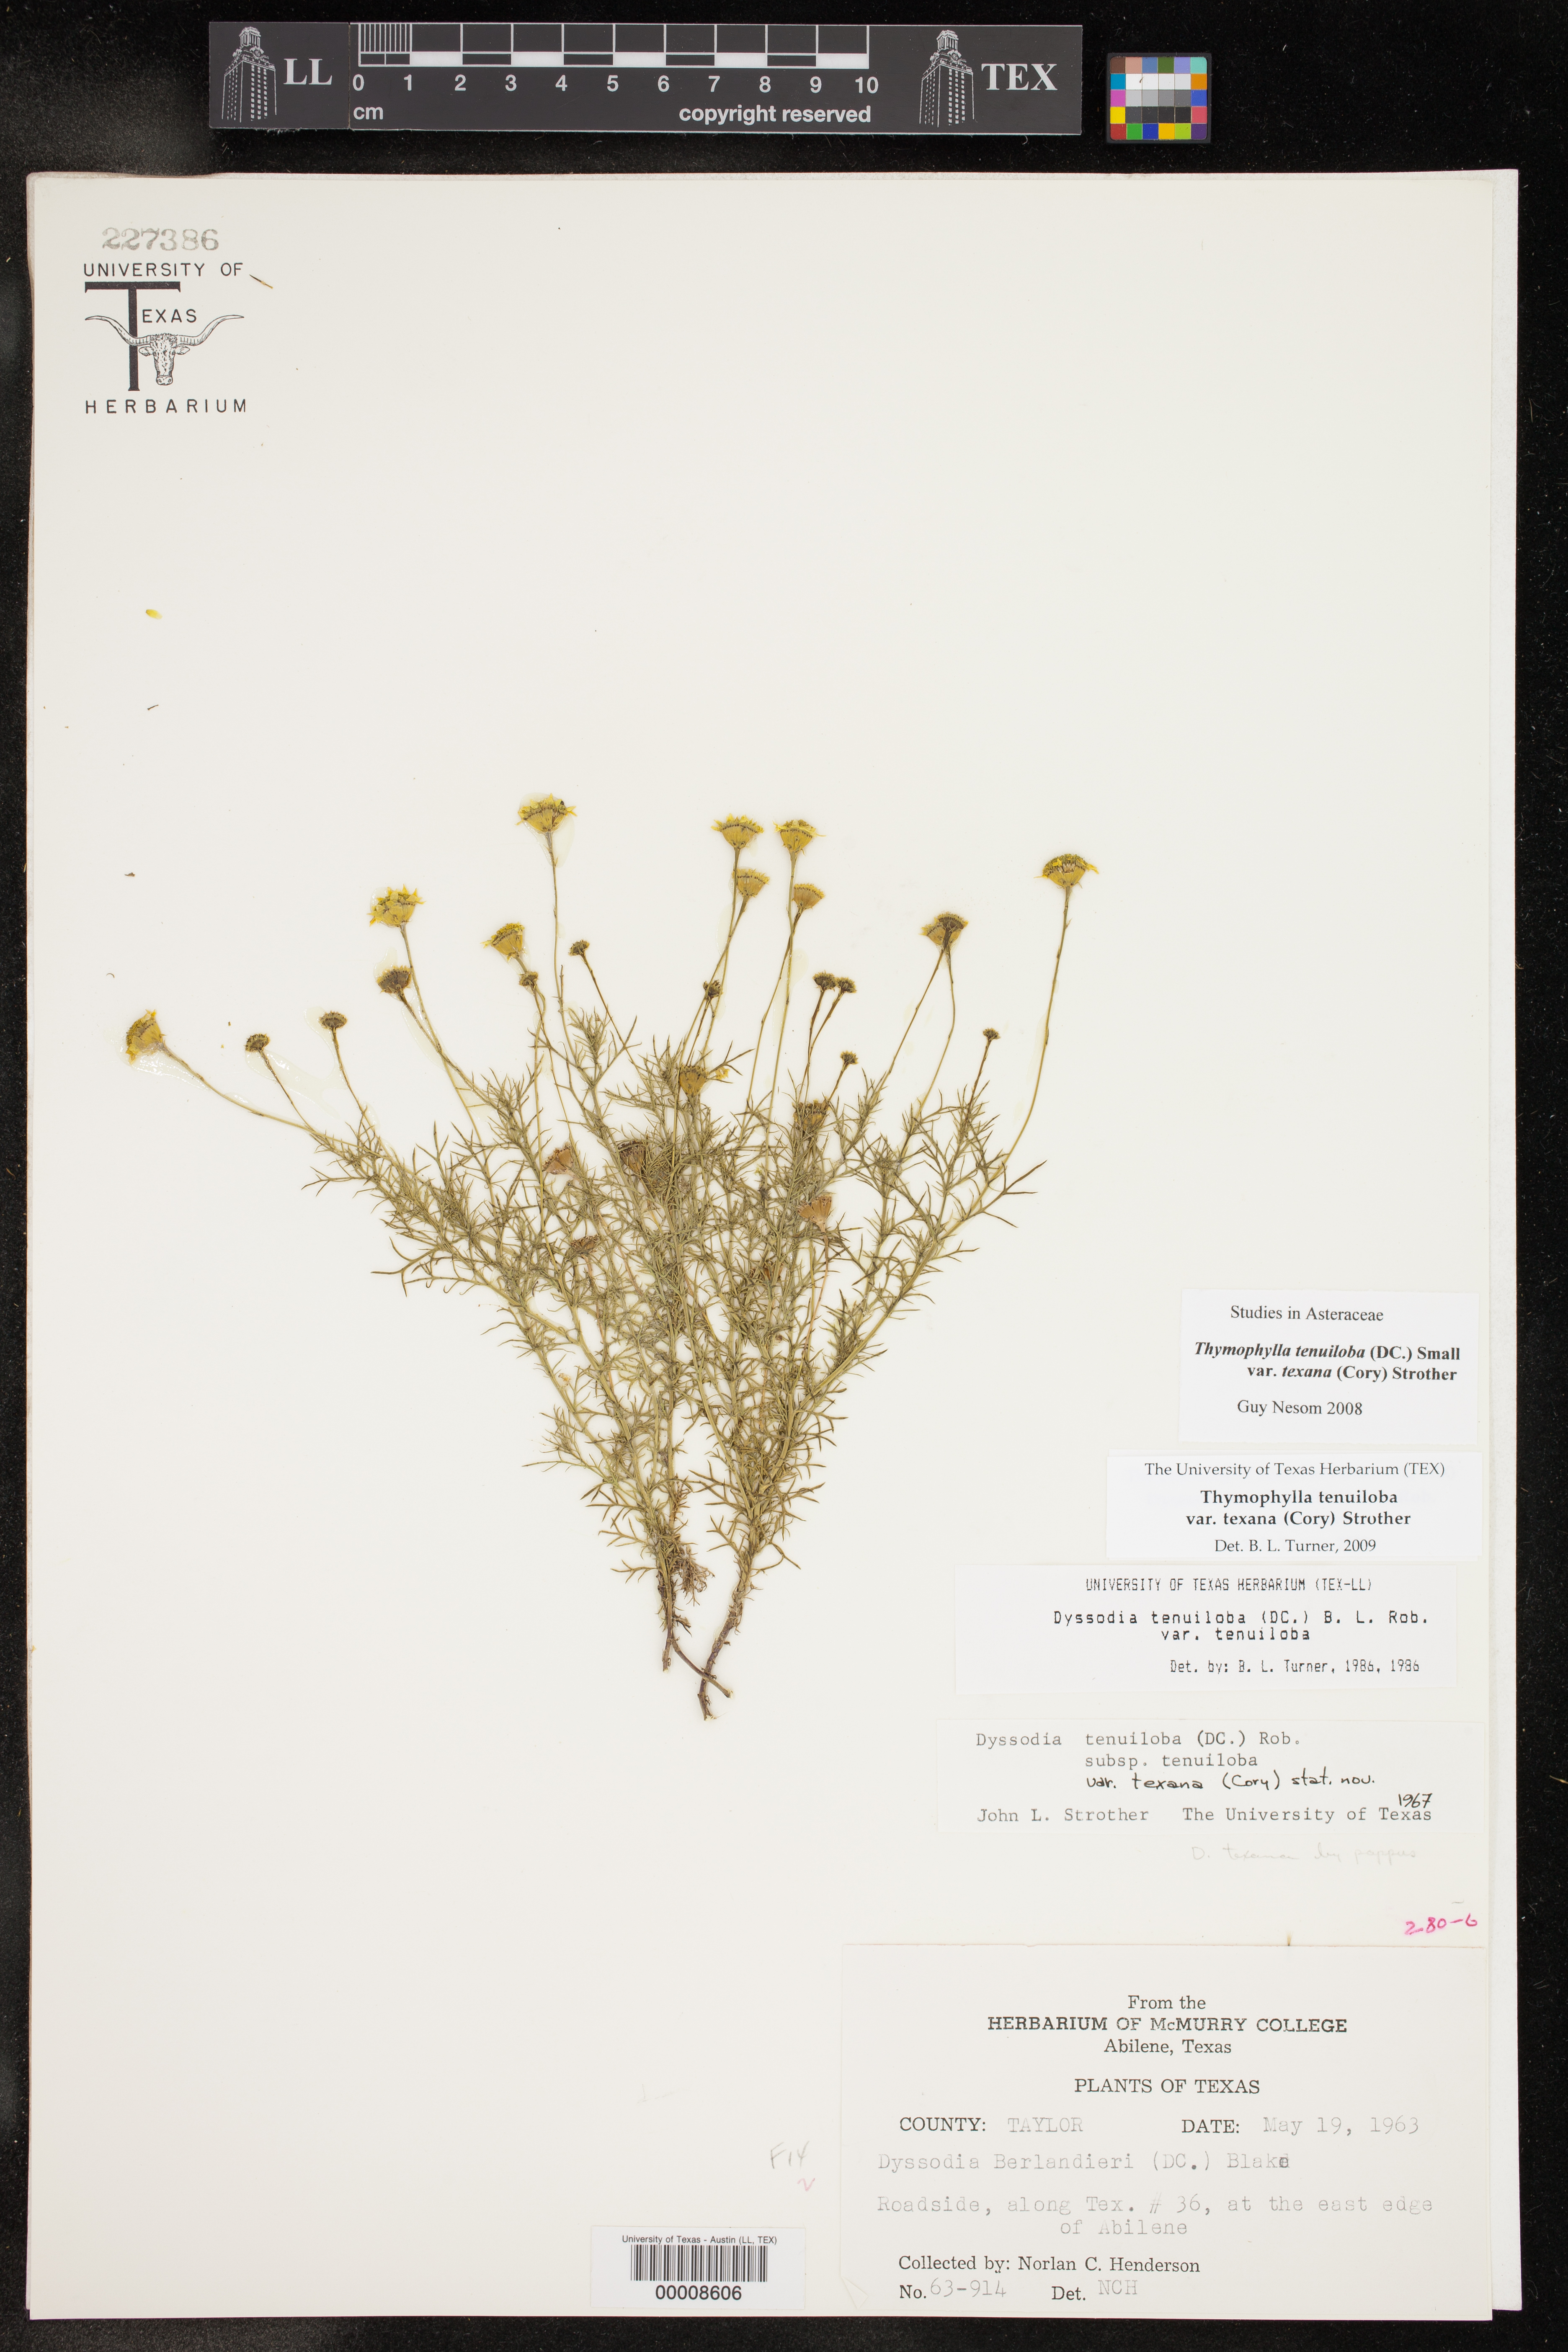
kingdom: Plantae
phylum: Tracheophyta
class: Magnoliopsida
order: Asterales
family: Asteraceae
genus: Thymophylla
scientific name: Thymophylla tenuiloba
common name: Dahlberg's daisy
